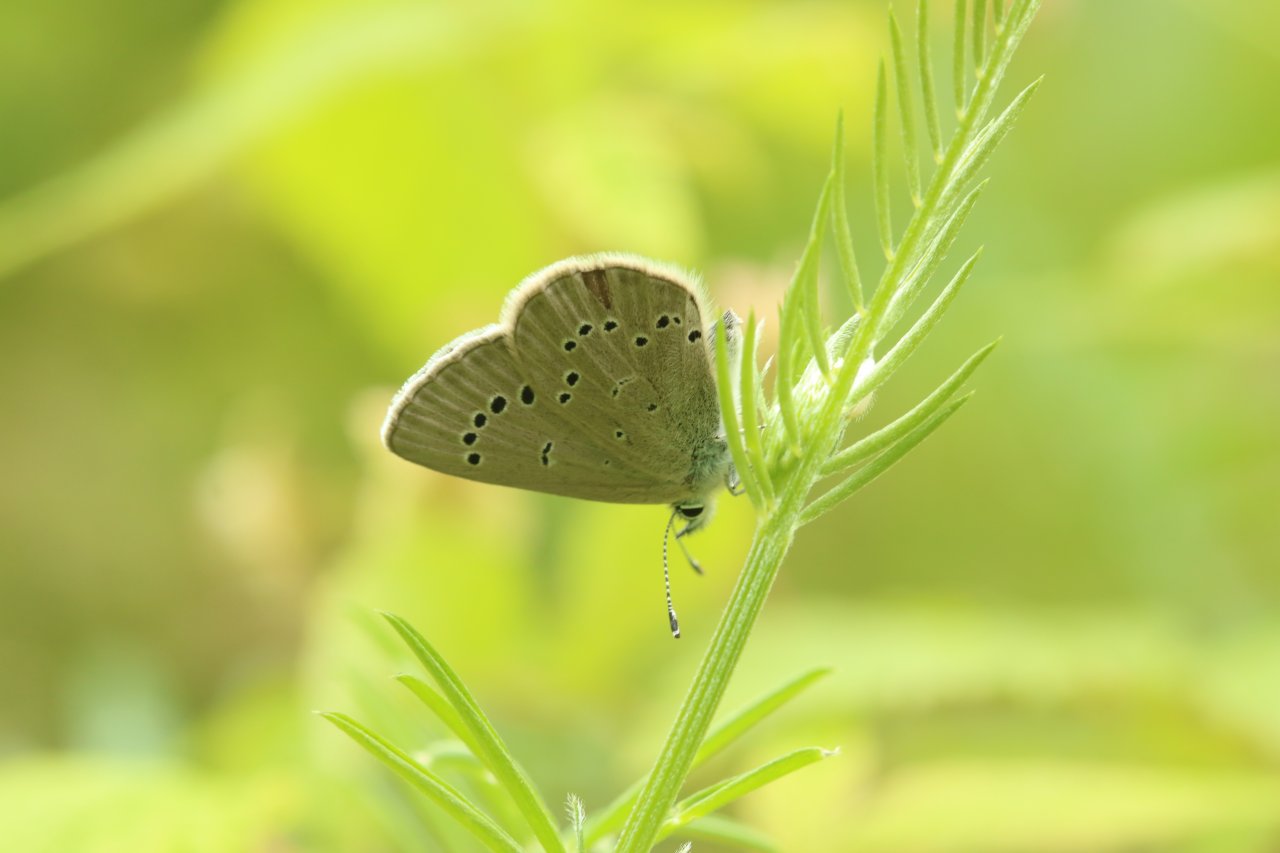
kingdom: Animalia
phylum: Arthropoda
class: Insecta
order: Lepidoptera
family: Lycaenidae
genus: Glaucopsyche
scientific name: Glaucopsyche lygdamus
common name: Silvery Blue
